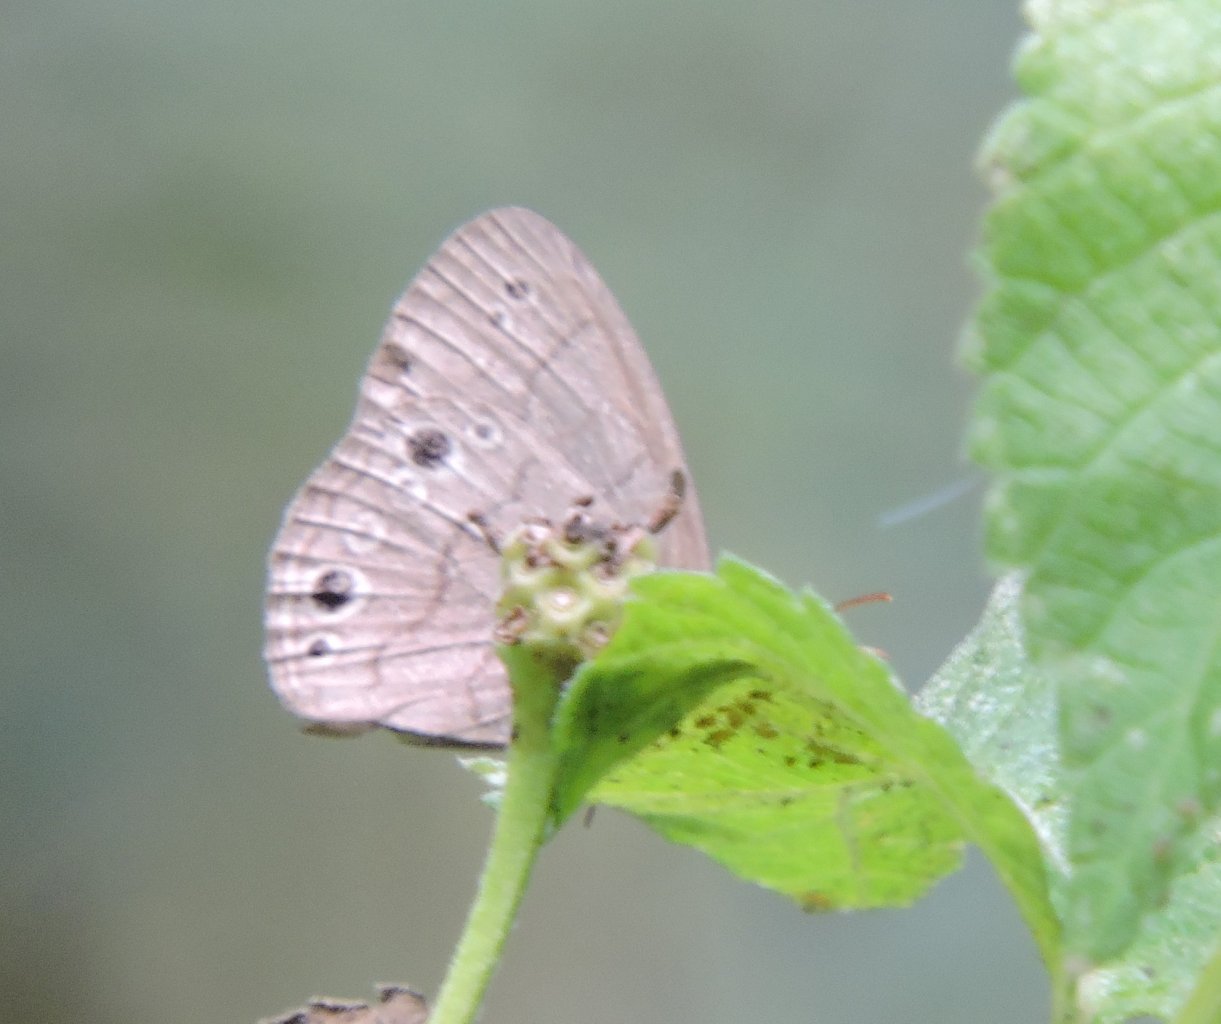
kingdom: Animalia
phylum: Arthropoda
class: Insecta
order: Lepidoptera
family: Nymphalidae
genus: Hermeuptychia
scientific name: Hermeuptychia hermes
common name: Carolina Satyr
